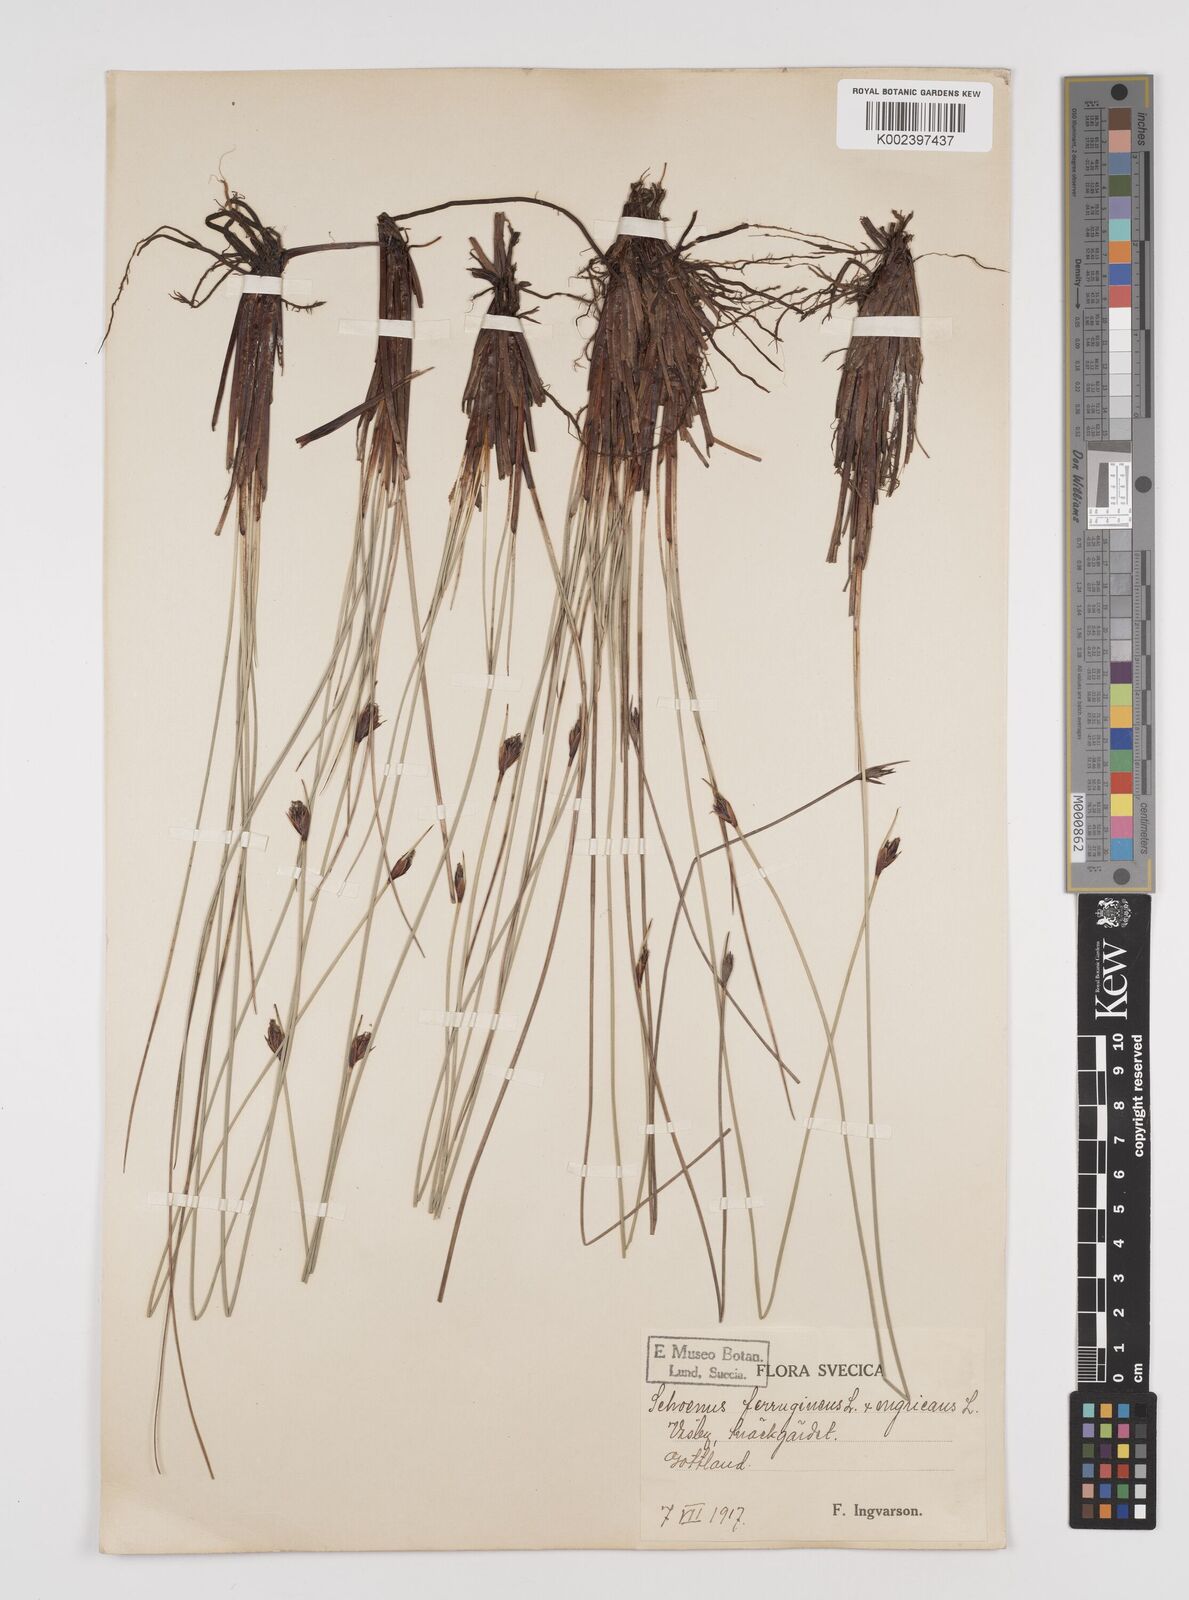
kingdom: Plantae
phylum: Tracheophyta
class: Liliopsida
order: Poales
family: Cyperaceae
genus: Schoenus
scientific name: Schoenus ferrugineus
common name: Brown bog-rush
